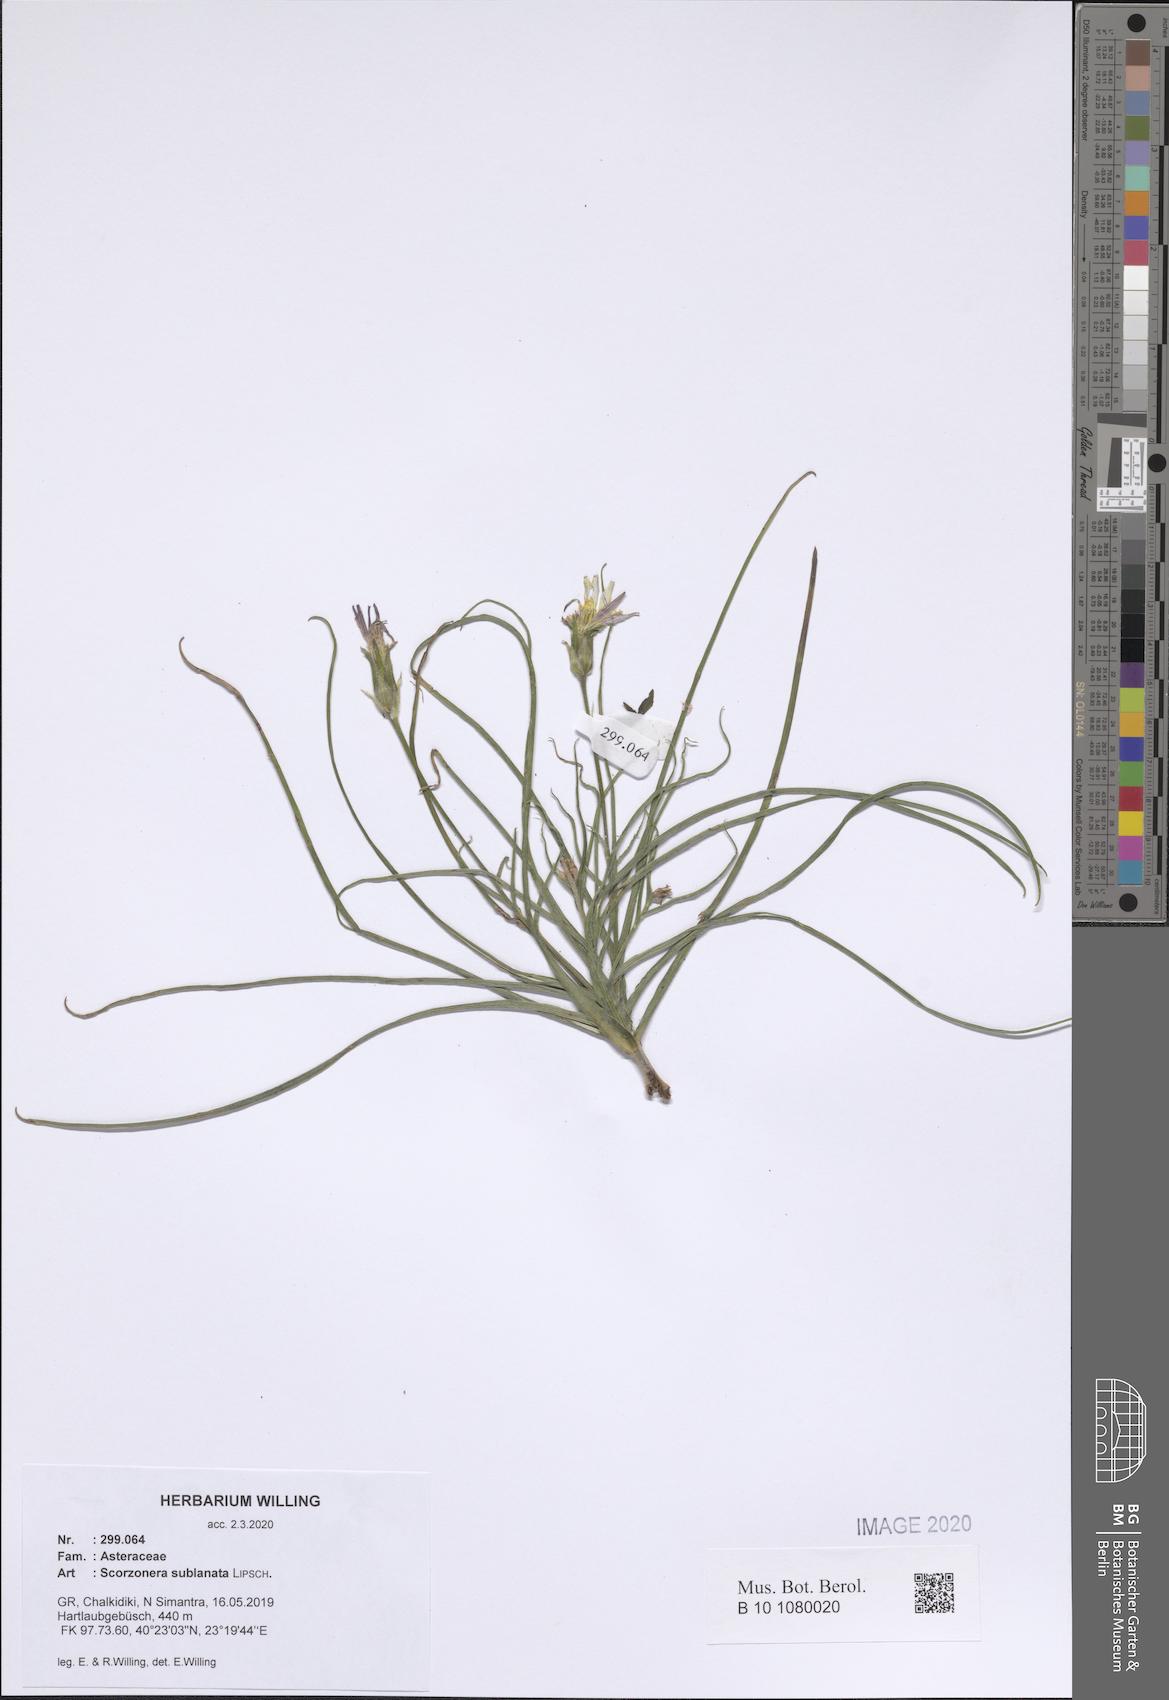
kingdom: Plantae
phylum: Tracheophyta
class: Magnoliopsida
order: Asterales
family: Asteraceae
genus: Bocquetia
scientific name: Bocquetia sublanata
